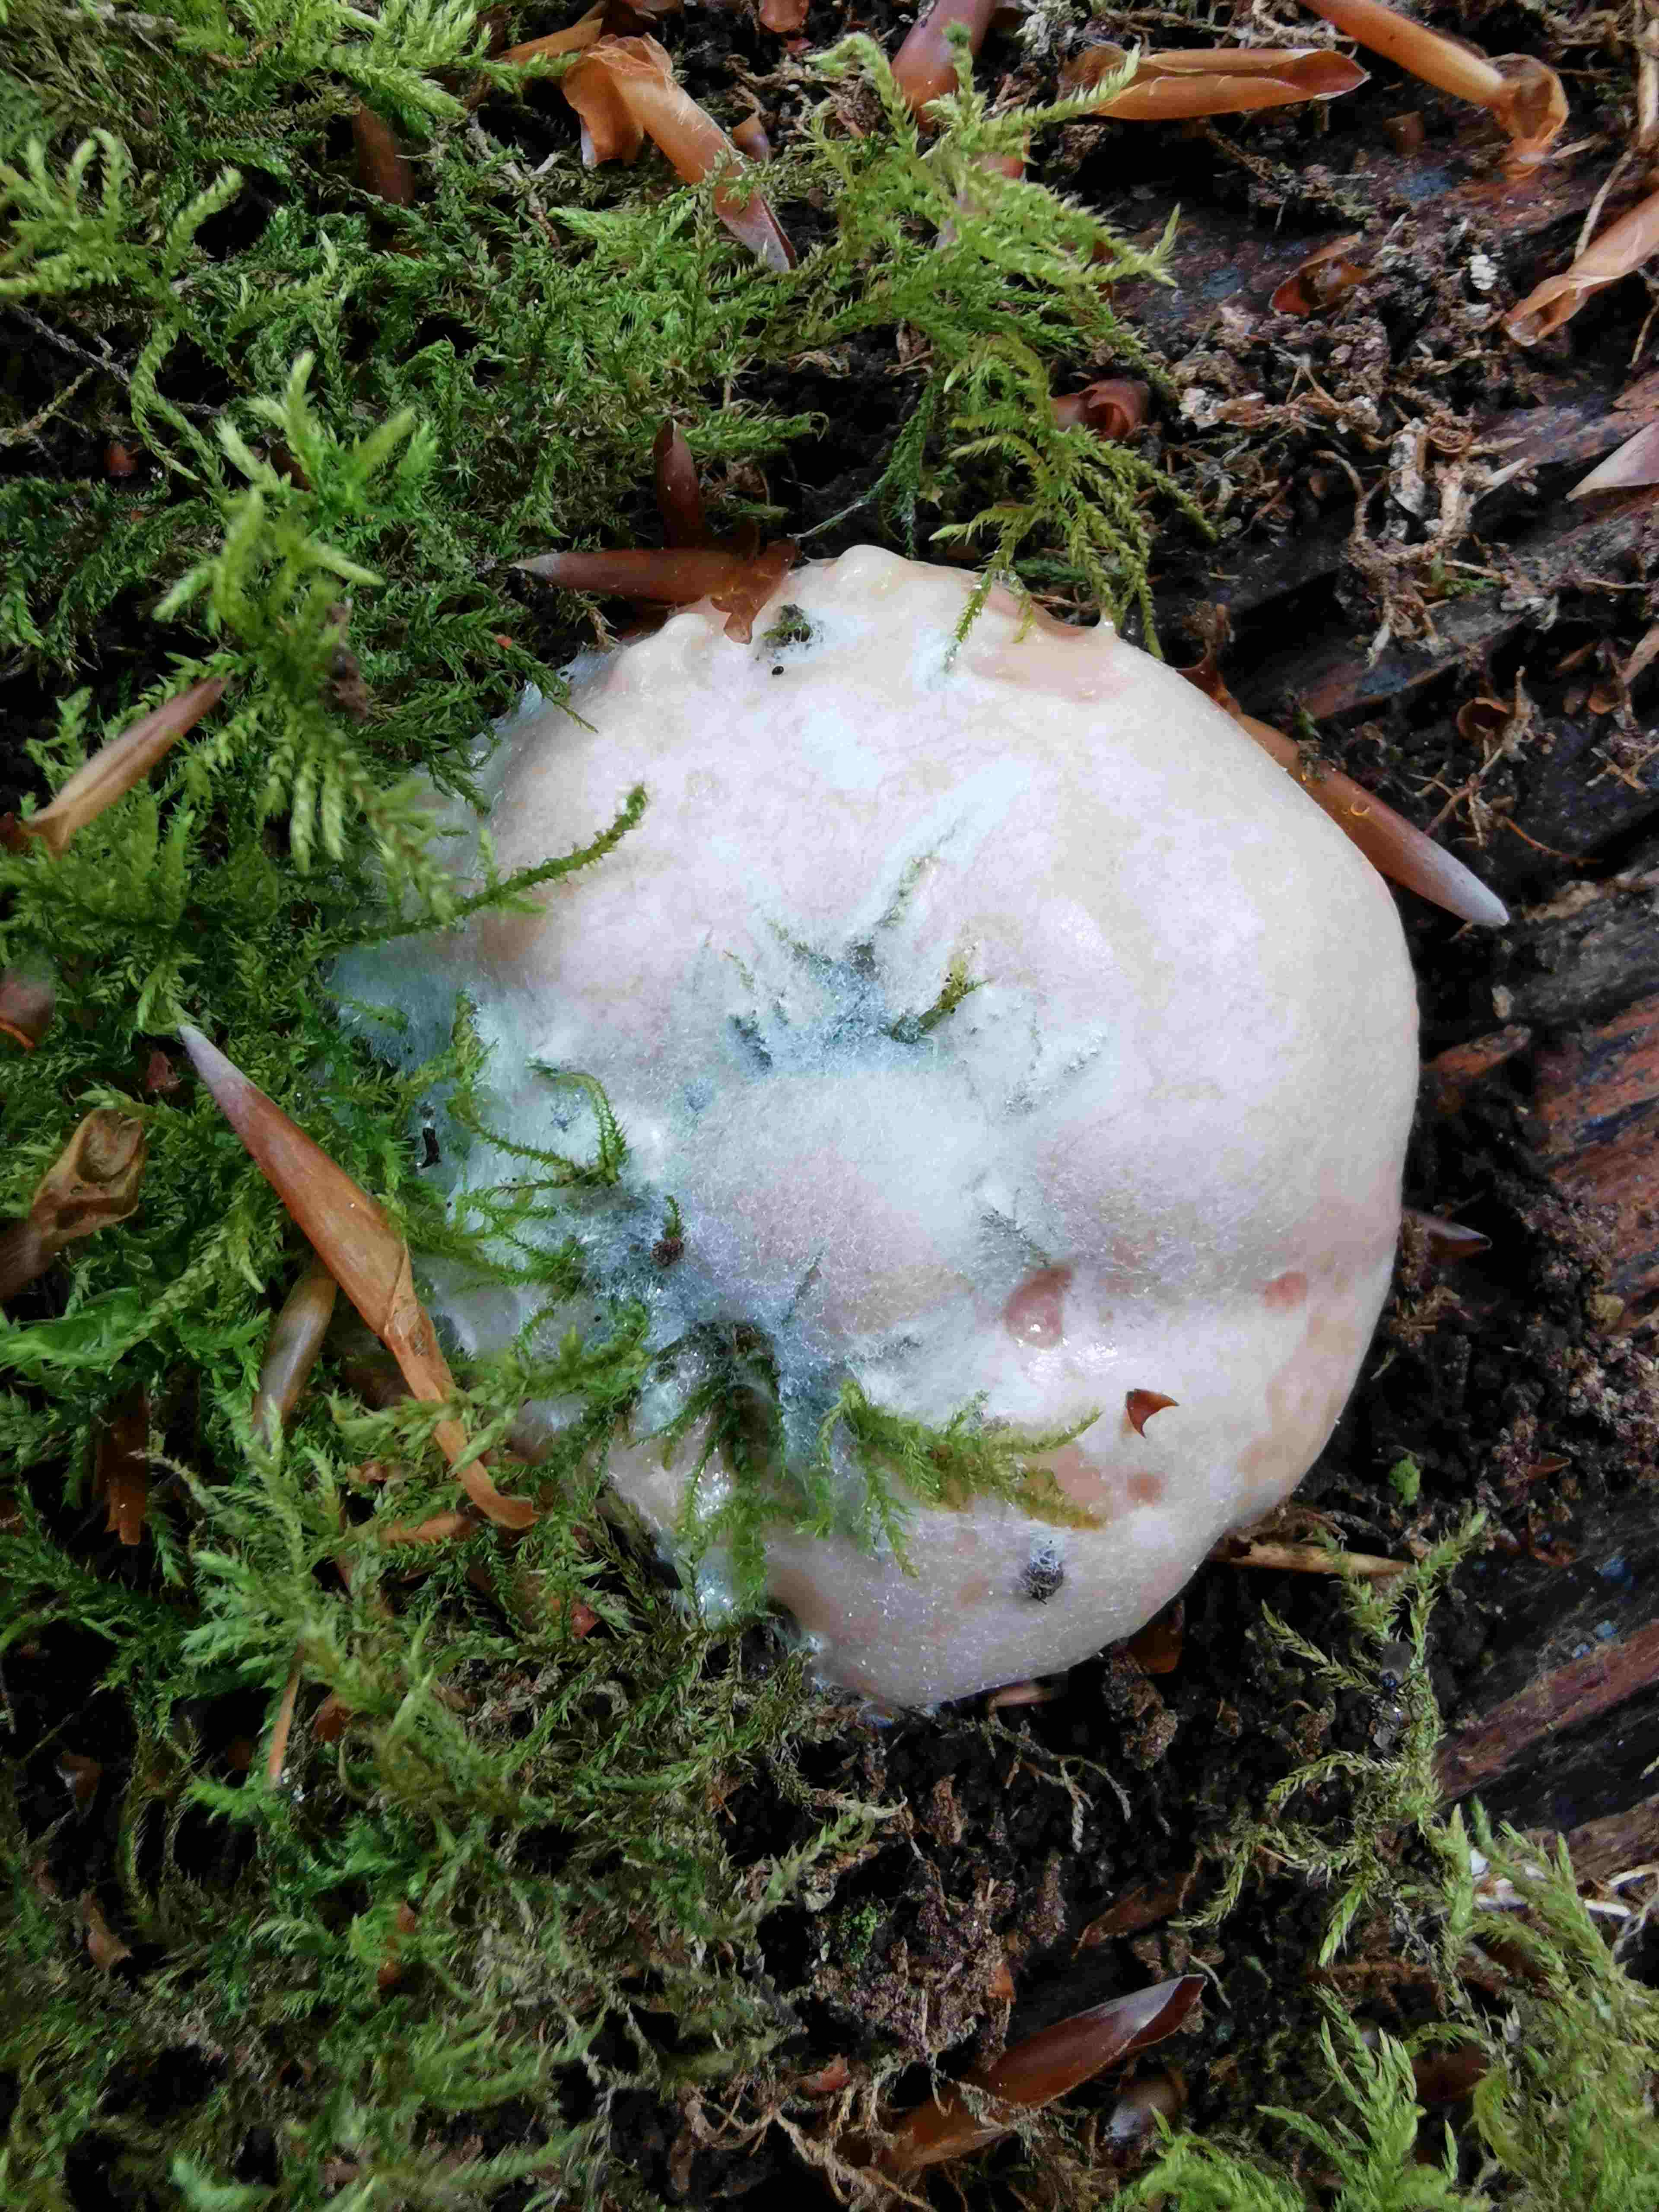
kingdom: Protozoa
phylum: Mycetozoa
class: Myxomycetes
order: Cribrariales
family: Tubiferaceae
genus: Reticularia
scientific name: Reticularia lycoperdon
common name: skinnende støvpude
